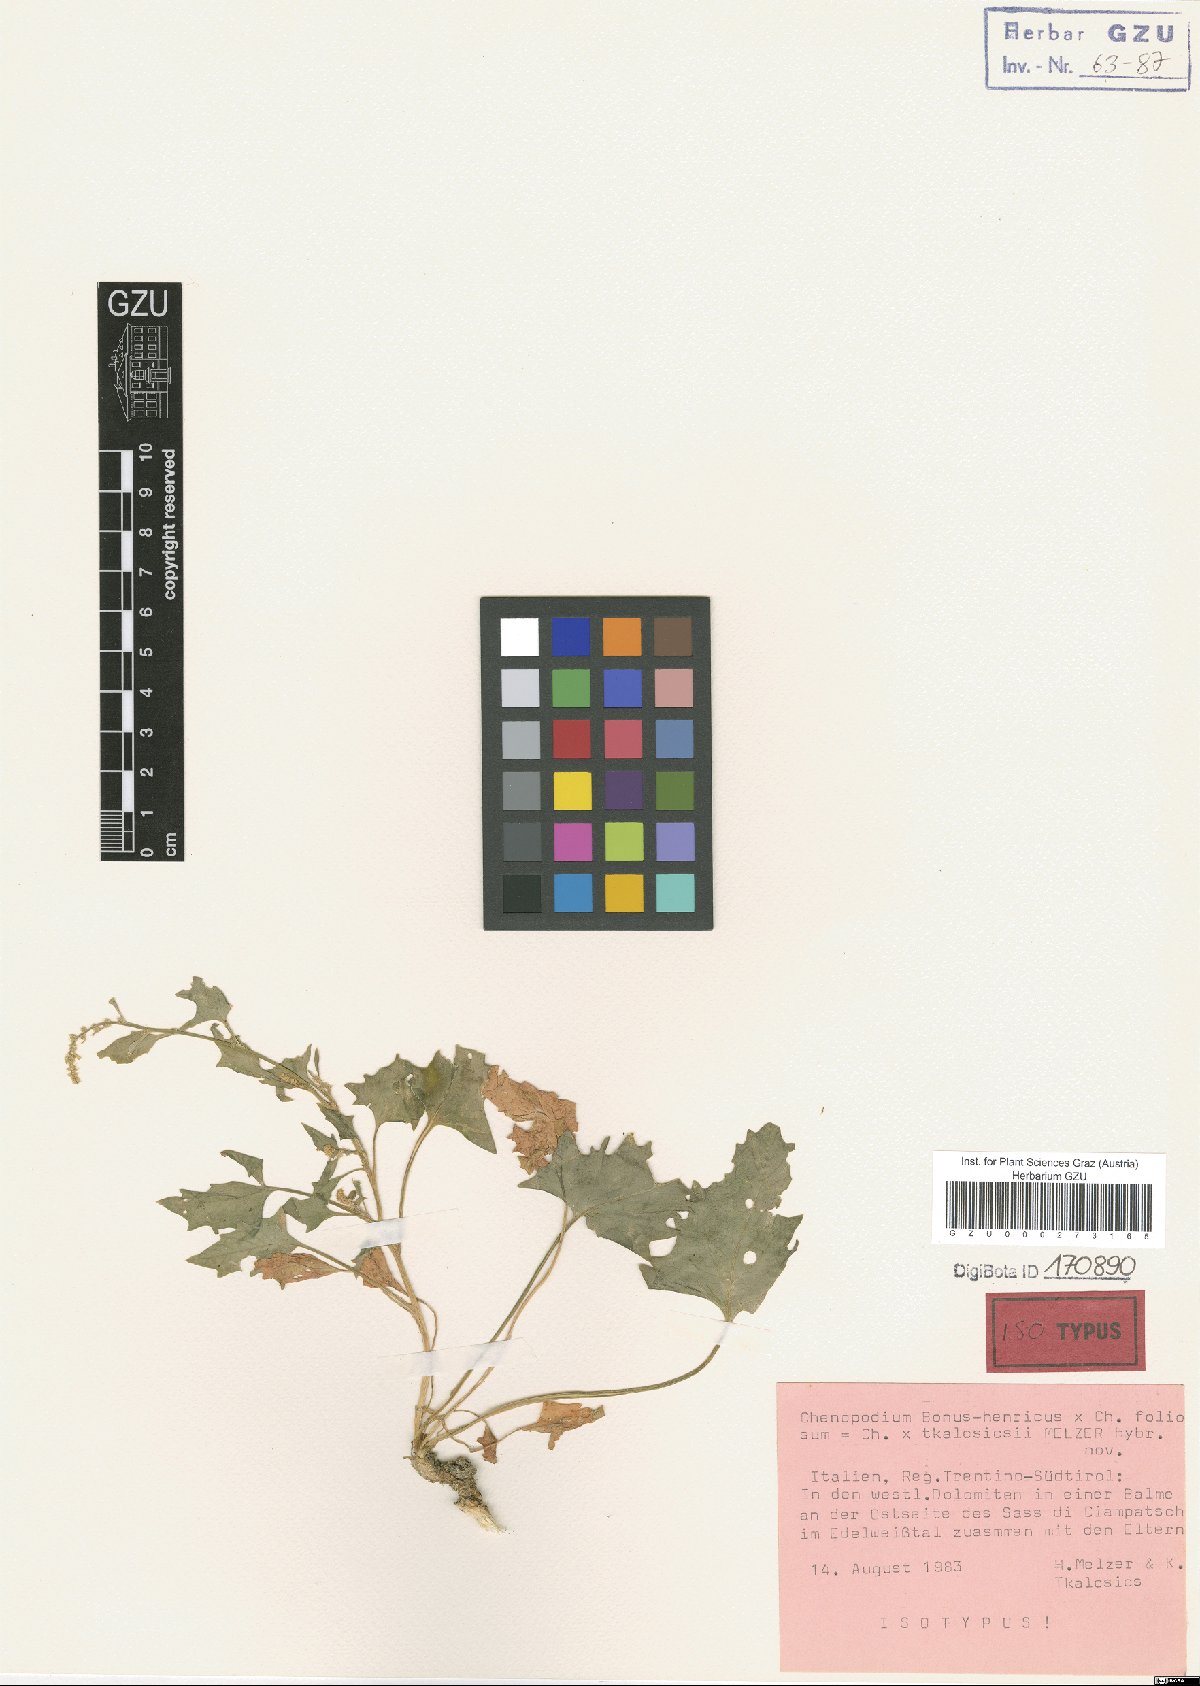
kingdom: Plantae
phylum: Tracheophyta
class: Magnoliopsida
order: Caryophyllales
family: Amaranthaceae
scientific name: Amaranthaceae
